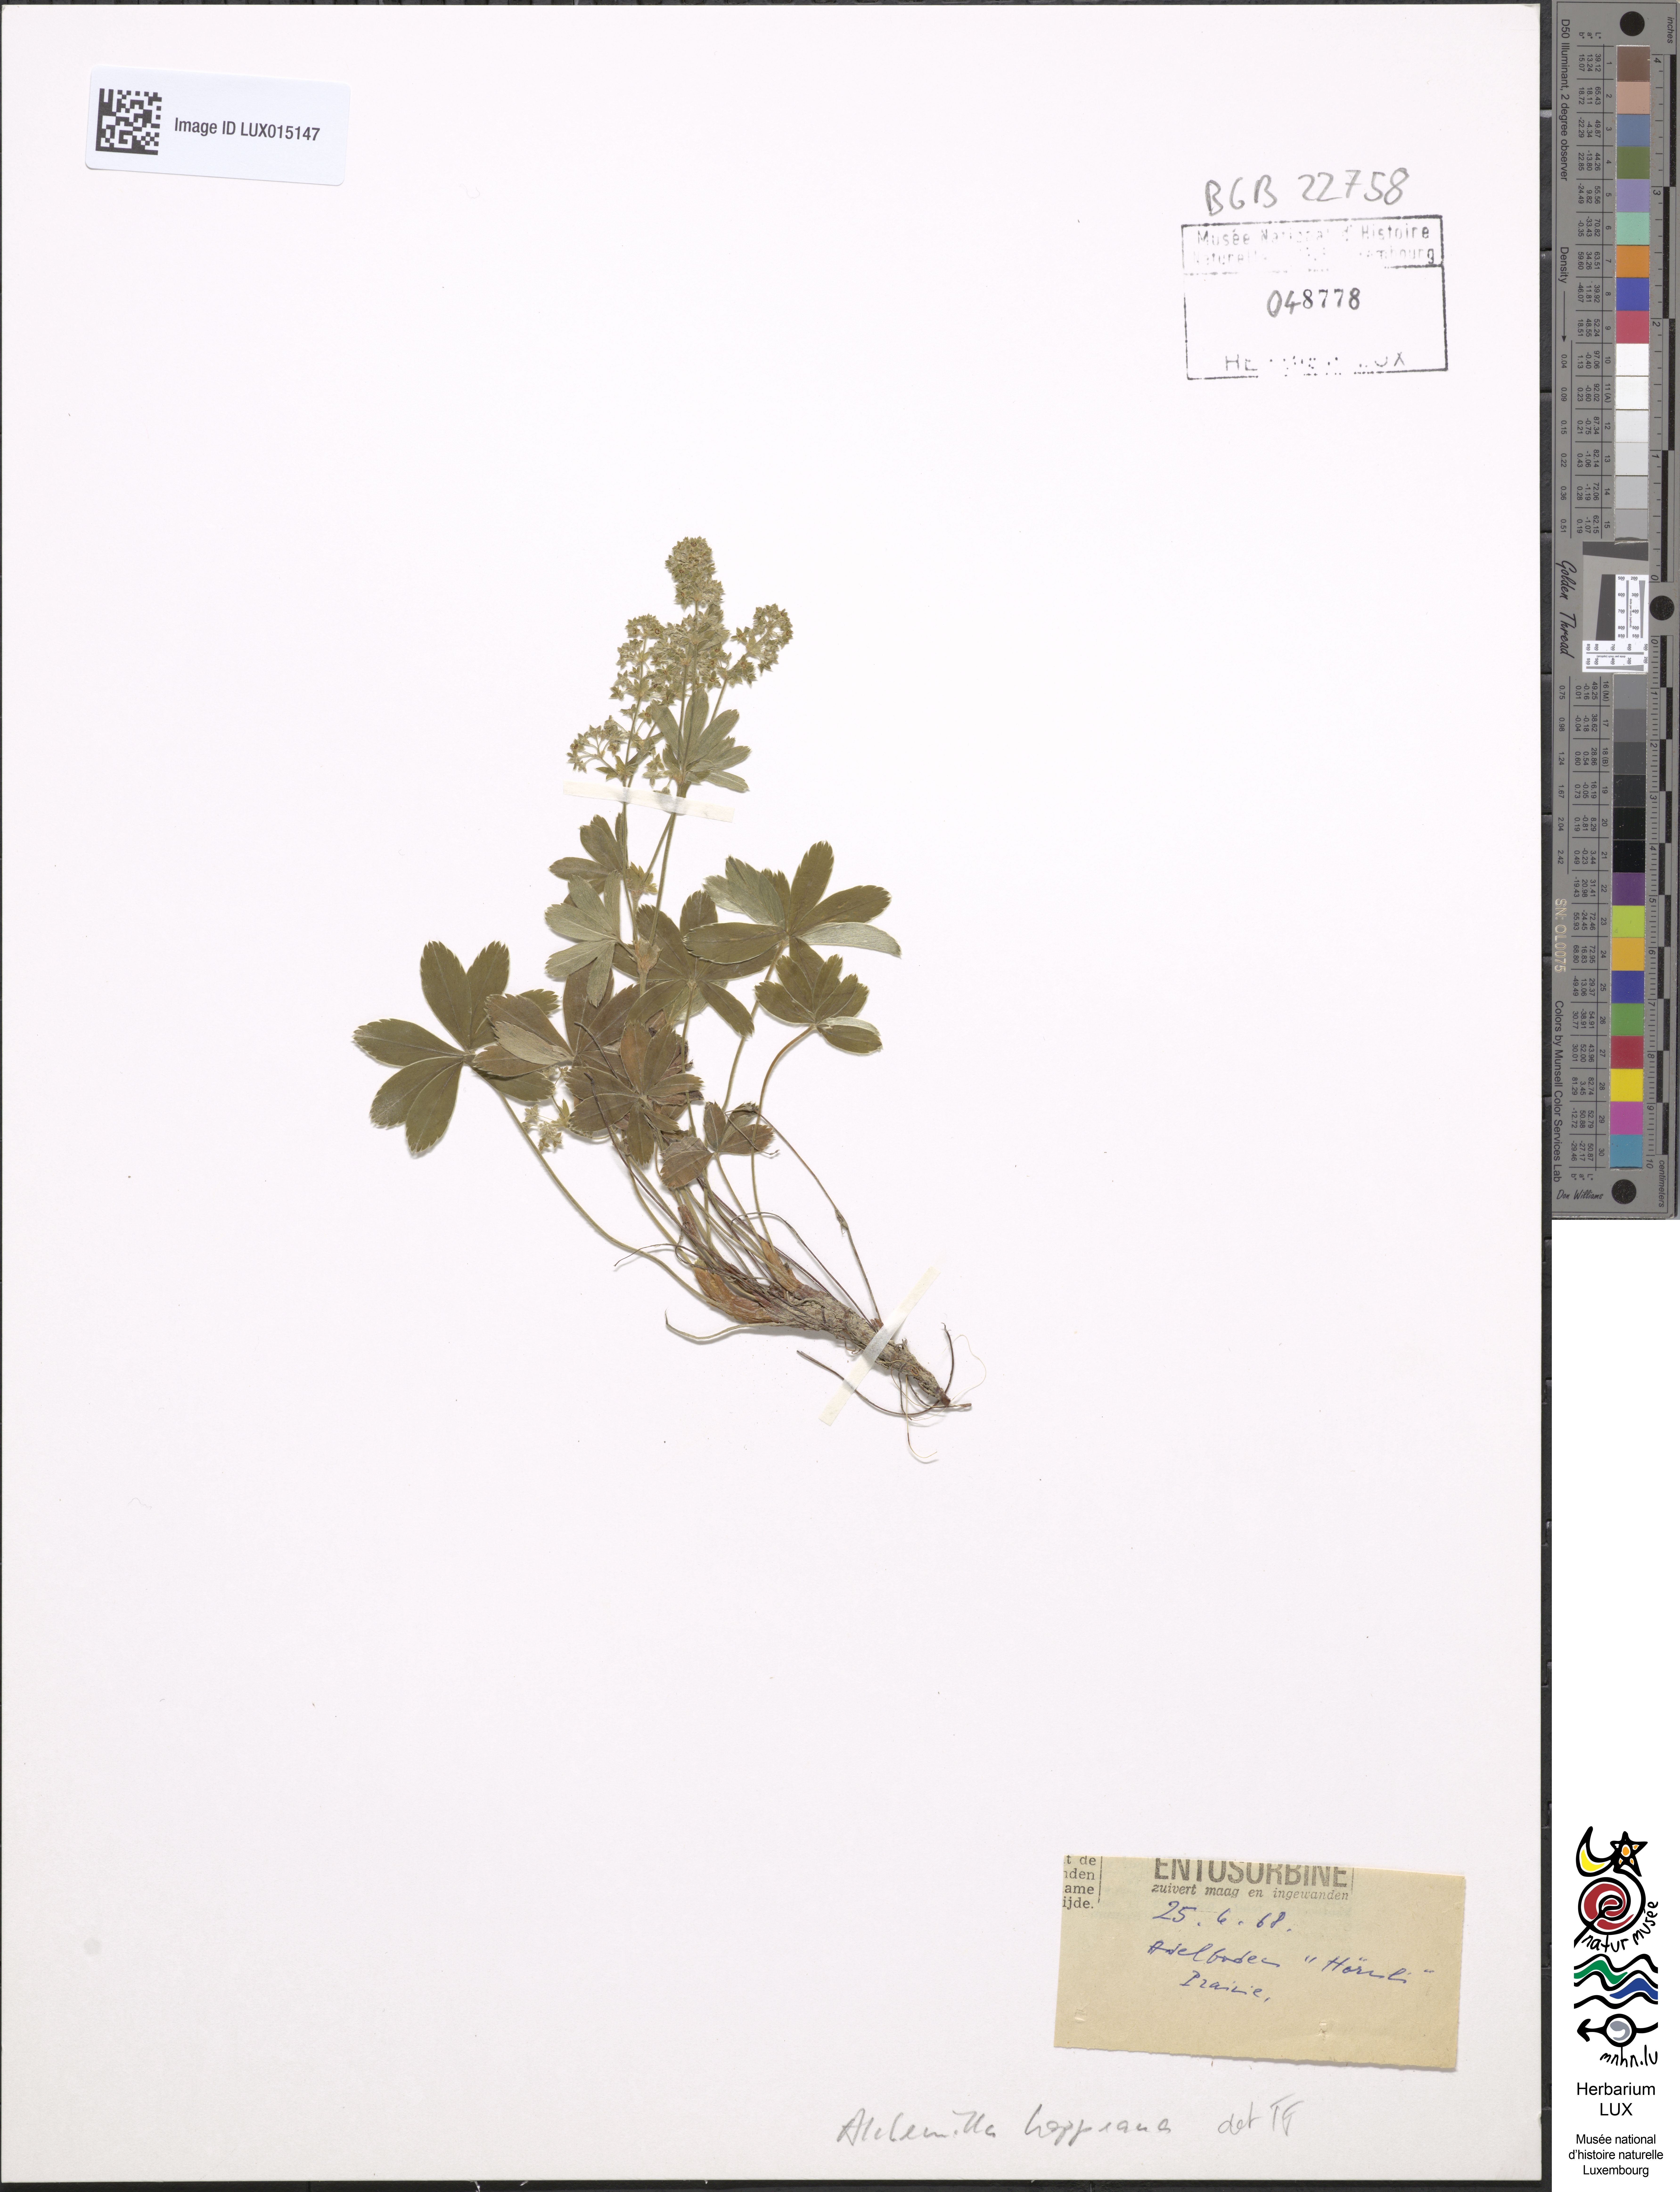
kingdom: Plantae
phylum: Tracheophyta
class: Magnoliopsida
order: Rosales
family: Rosaceae
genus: Alchemilla
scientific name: Alchemilla hoppeana
